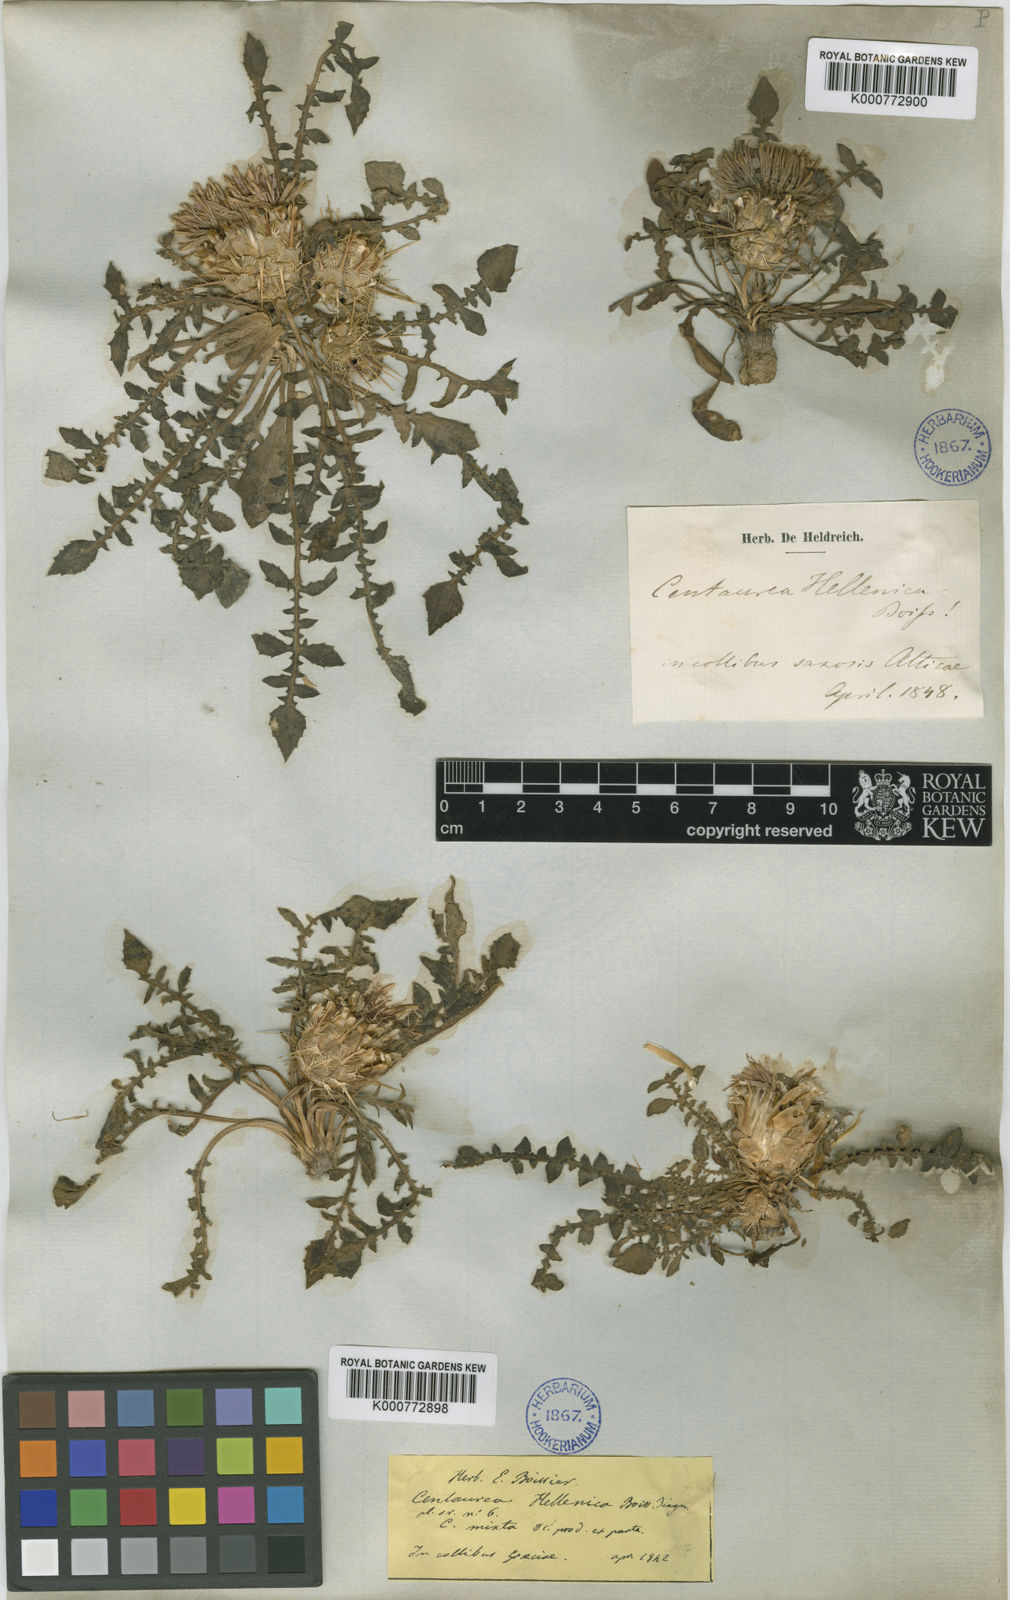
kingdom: Plantae
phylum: Tracheophyta
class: Magnoliopsida
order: Asterales
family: Asteraceae
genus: Centaurea
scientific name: Centaurea raphanina
